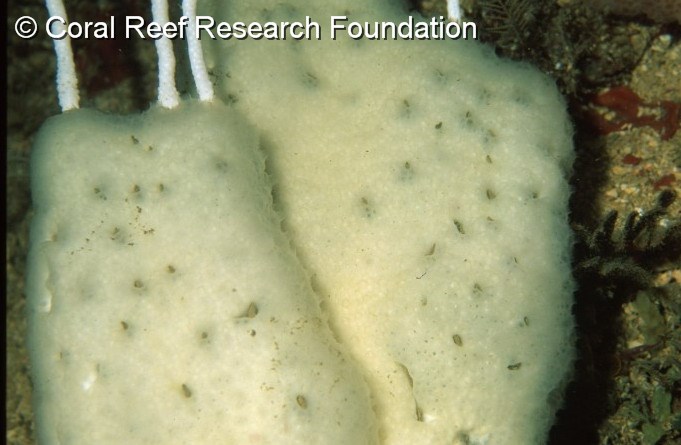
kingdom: Animalia
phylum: Chordata
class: Ascidiacea
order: Aplousobranchia
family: Holozoidae
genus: Distaplia
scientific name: Distaplia skoogi
